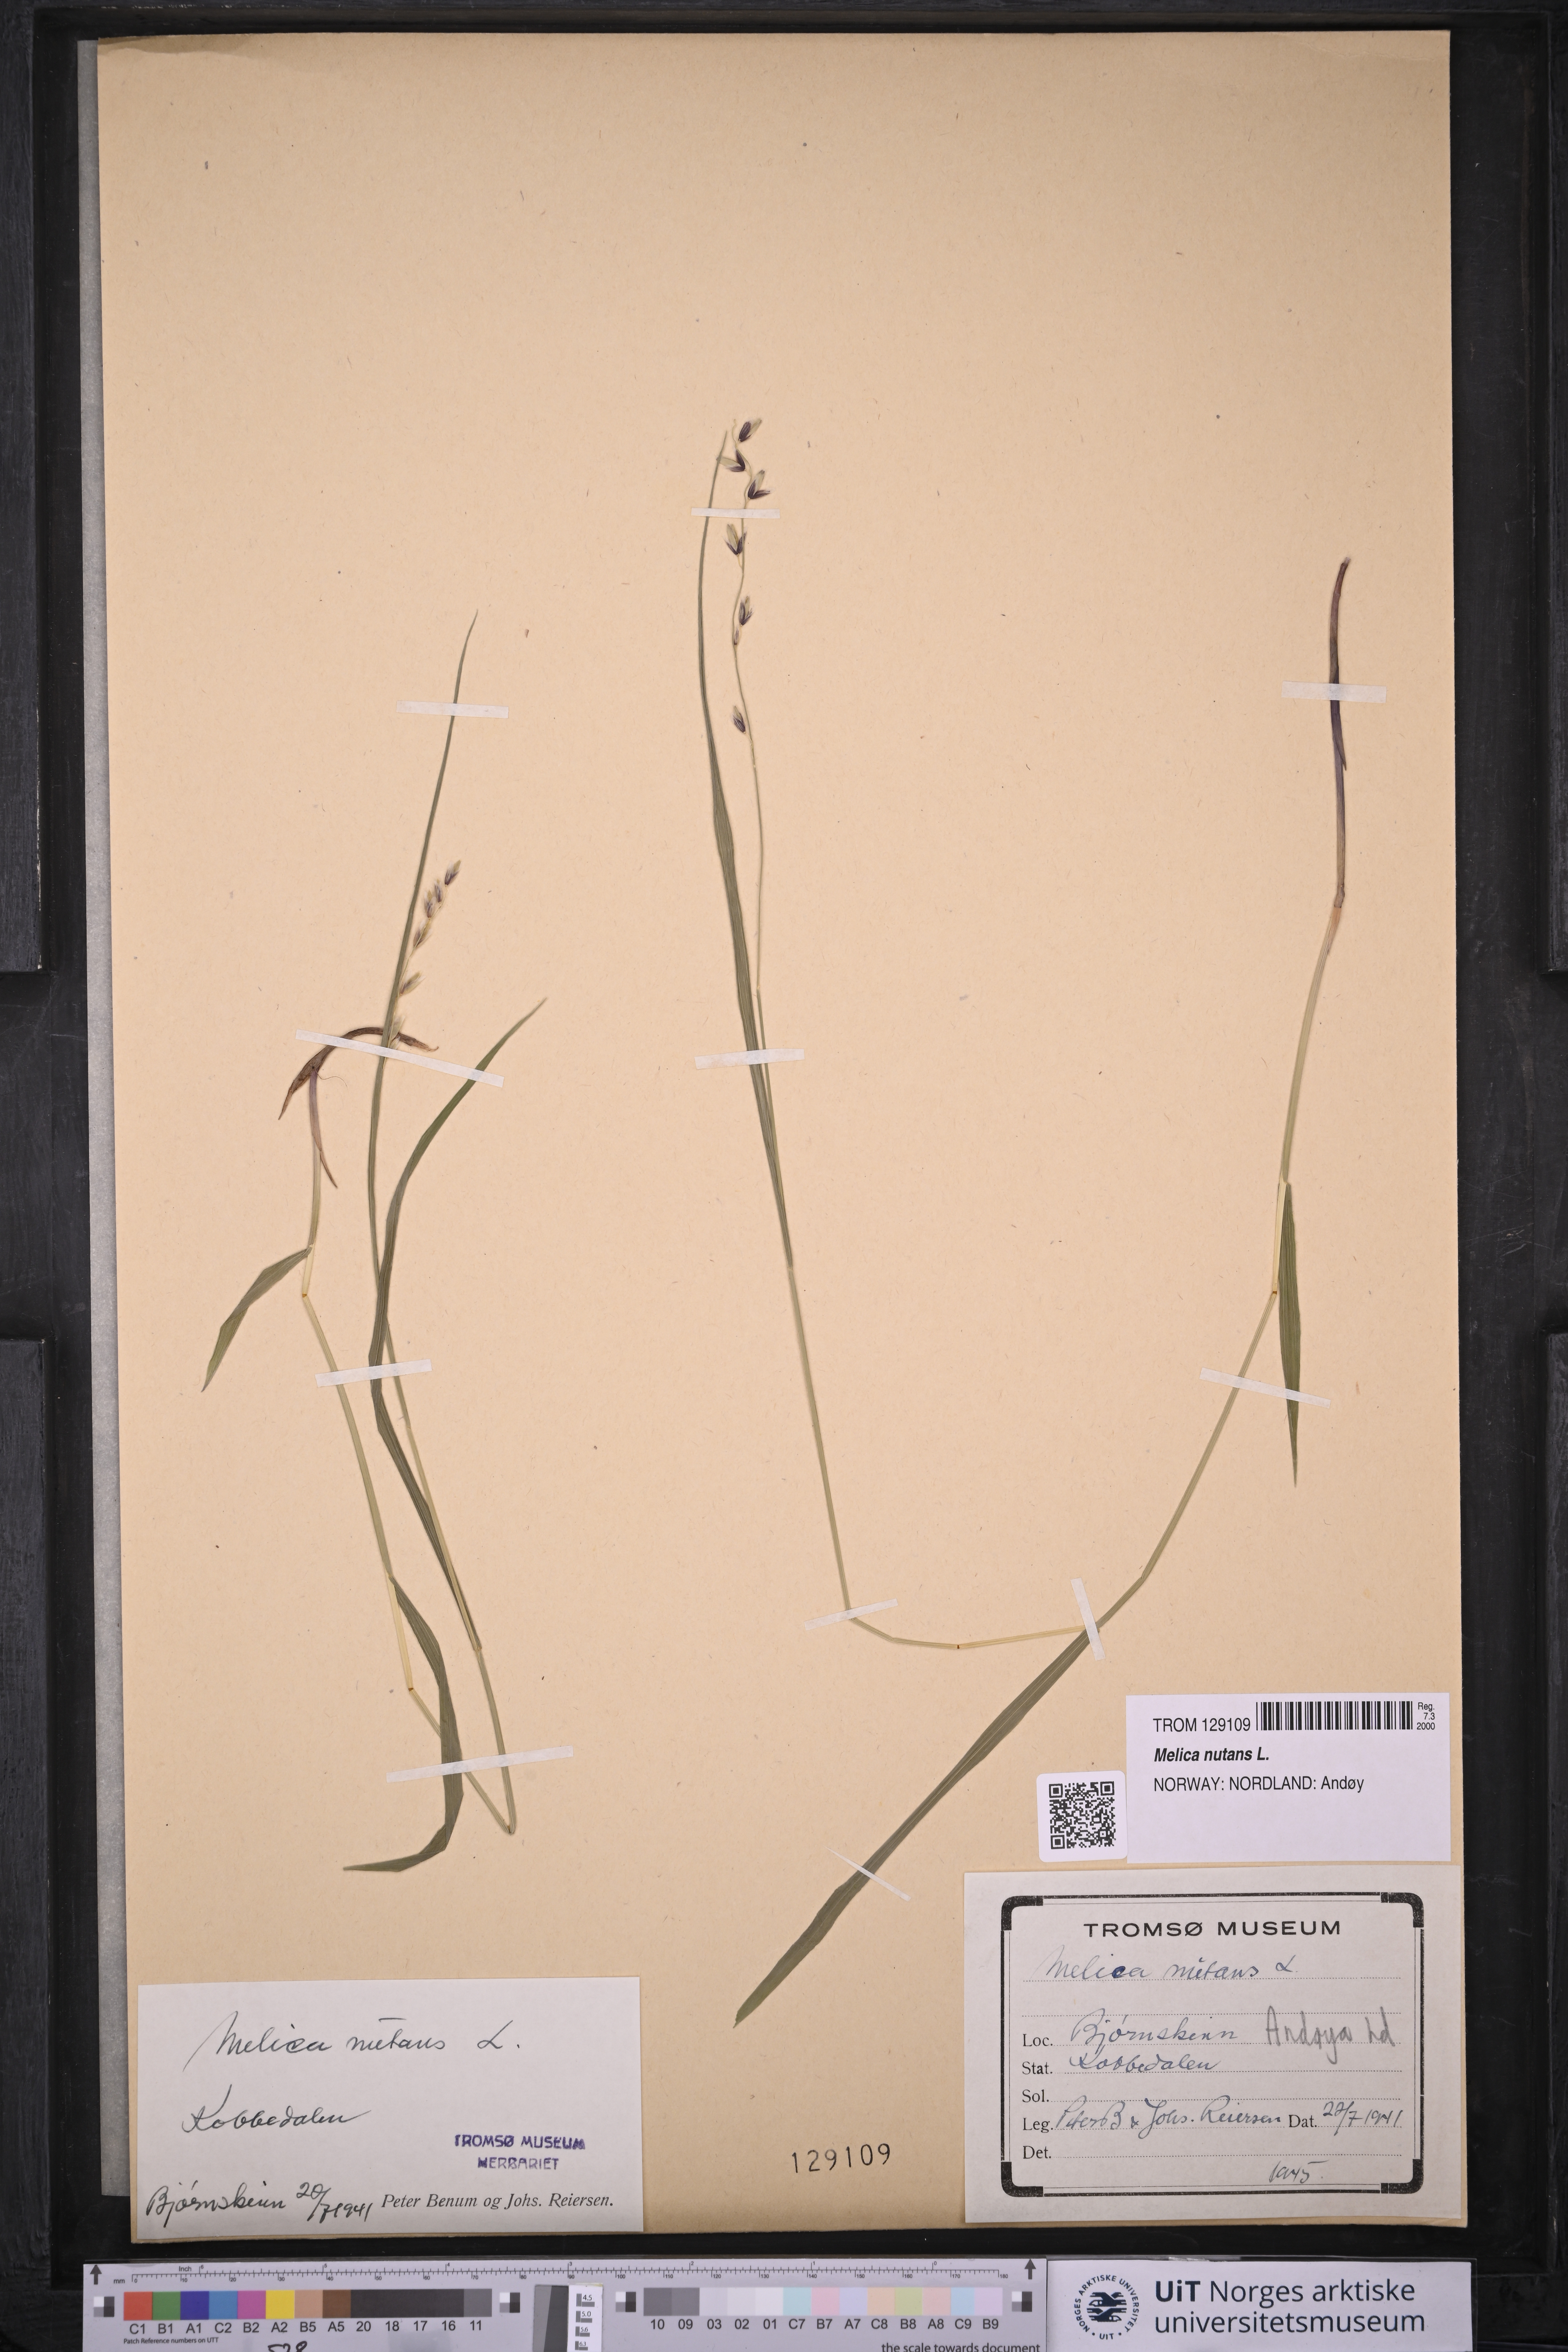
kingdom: Plantae
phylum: Tracheophyta
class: Liliopsida
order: Poales
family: Poaceae
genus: Melica
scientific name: Melica nutans
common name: Mountain melick
